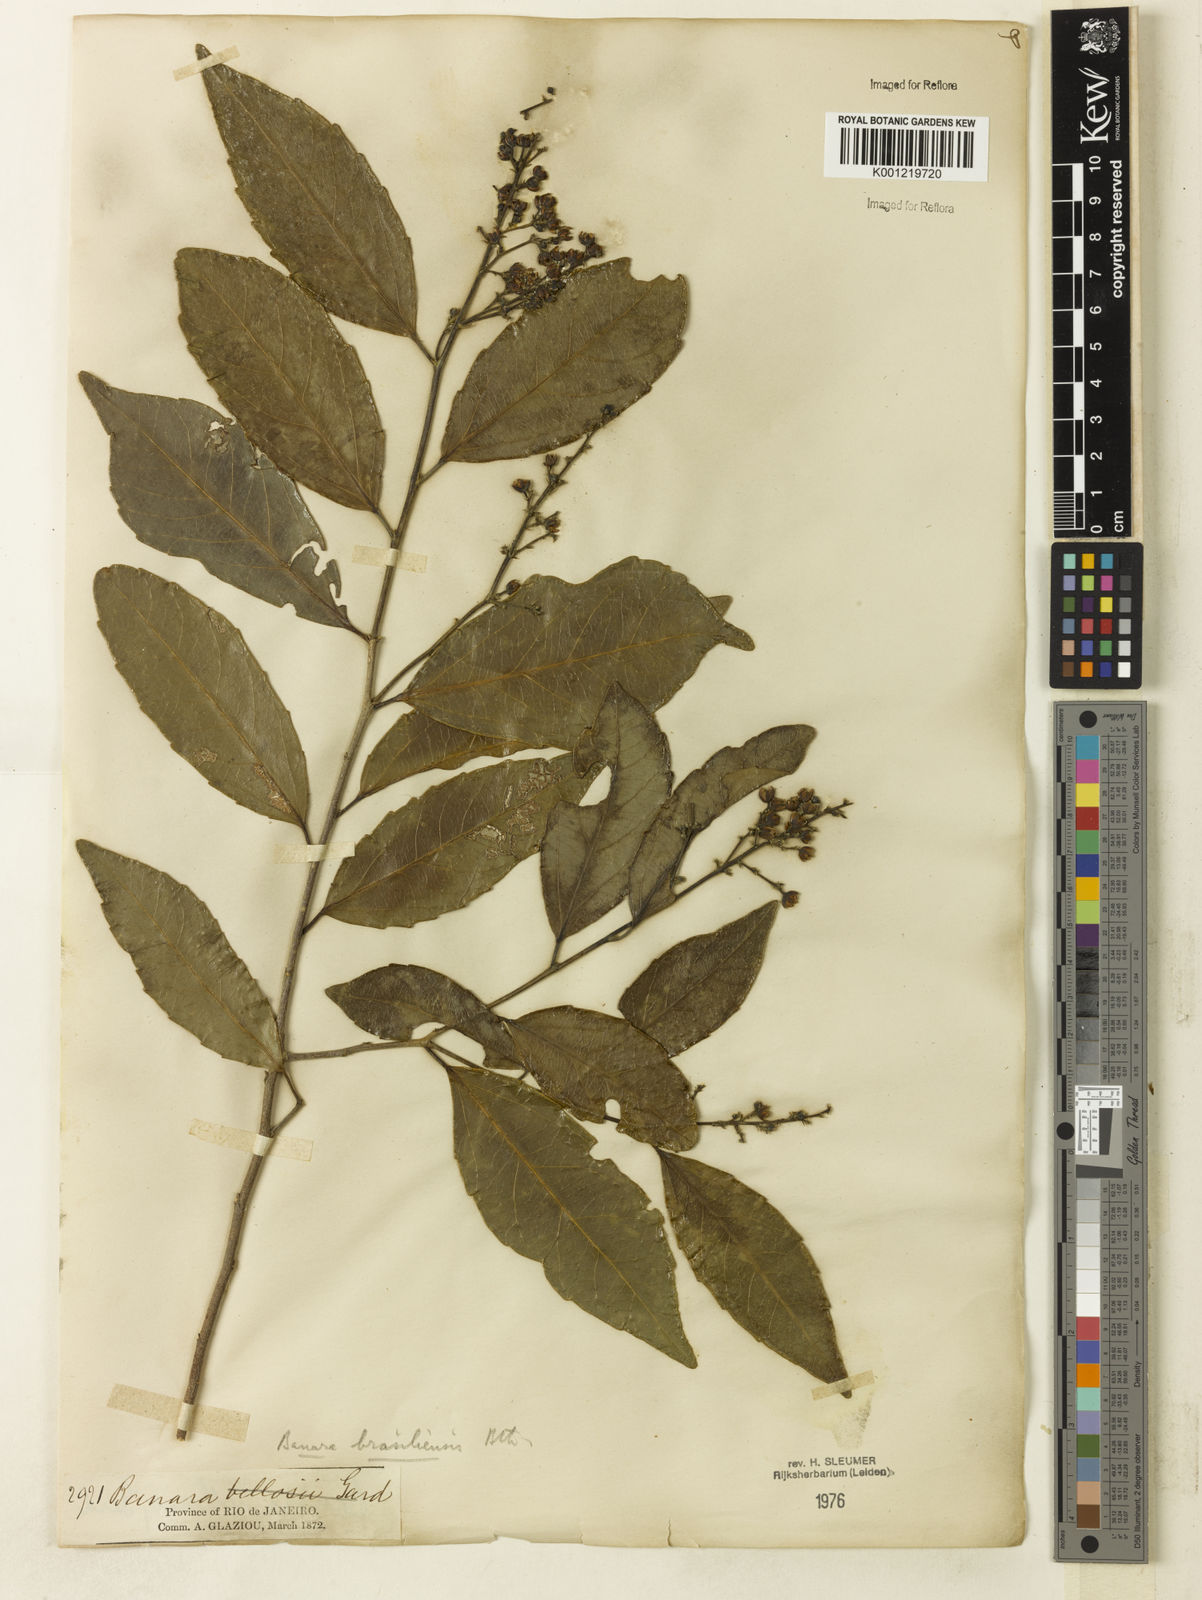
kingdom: Plantae
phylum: Tracheophyta
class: Magnoliopsida
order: Malpighiales
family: Salicaceae
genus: Banara
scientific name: Banara brasiliensis
